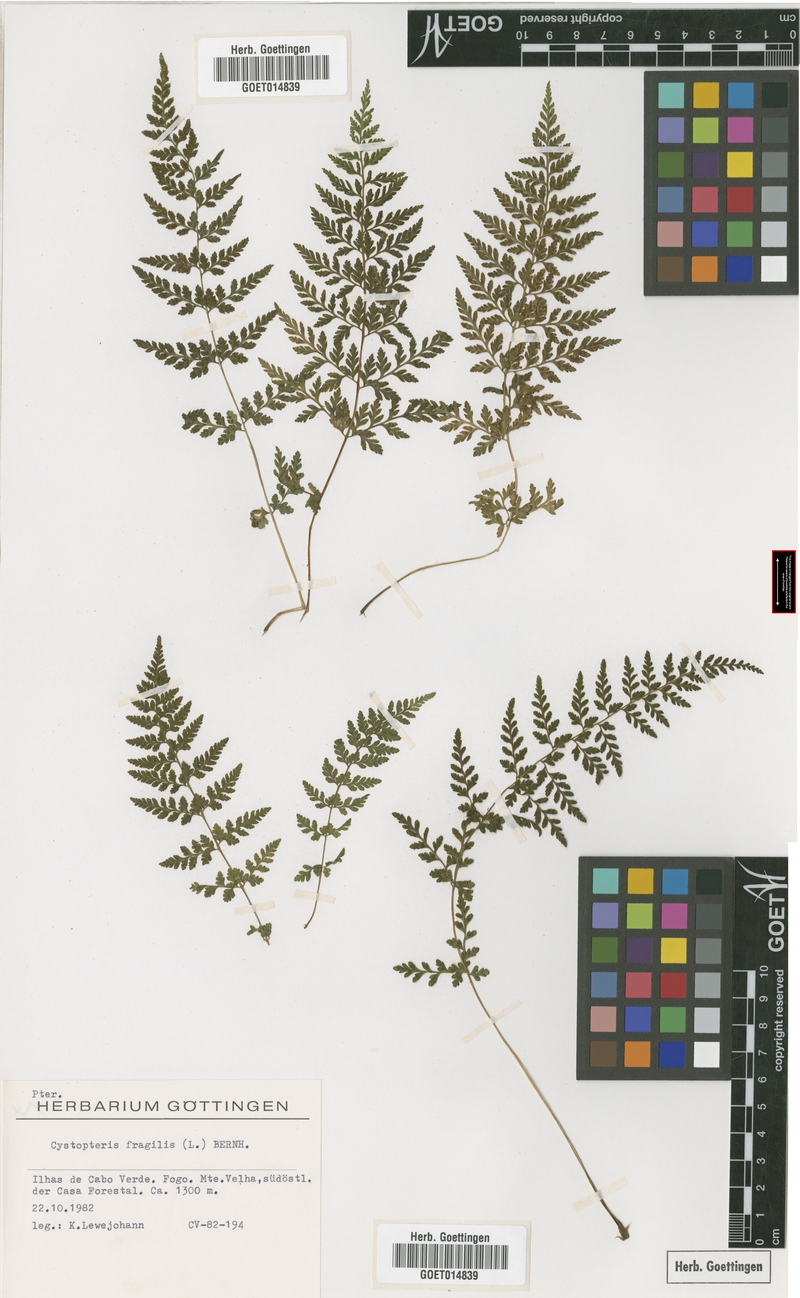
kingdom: Plantae
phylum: Tracheophyta
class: Polypodiopsida
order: Polypodiales
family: Cystopteridaceae
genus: Cystopteris
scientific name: Cystopteris fragilis
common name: Brittle bladder fern
